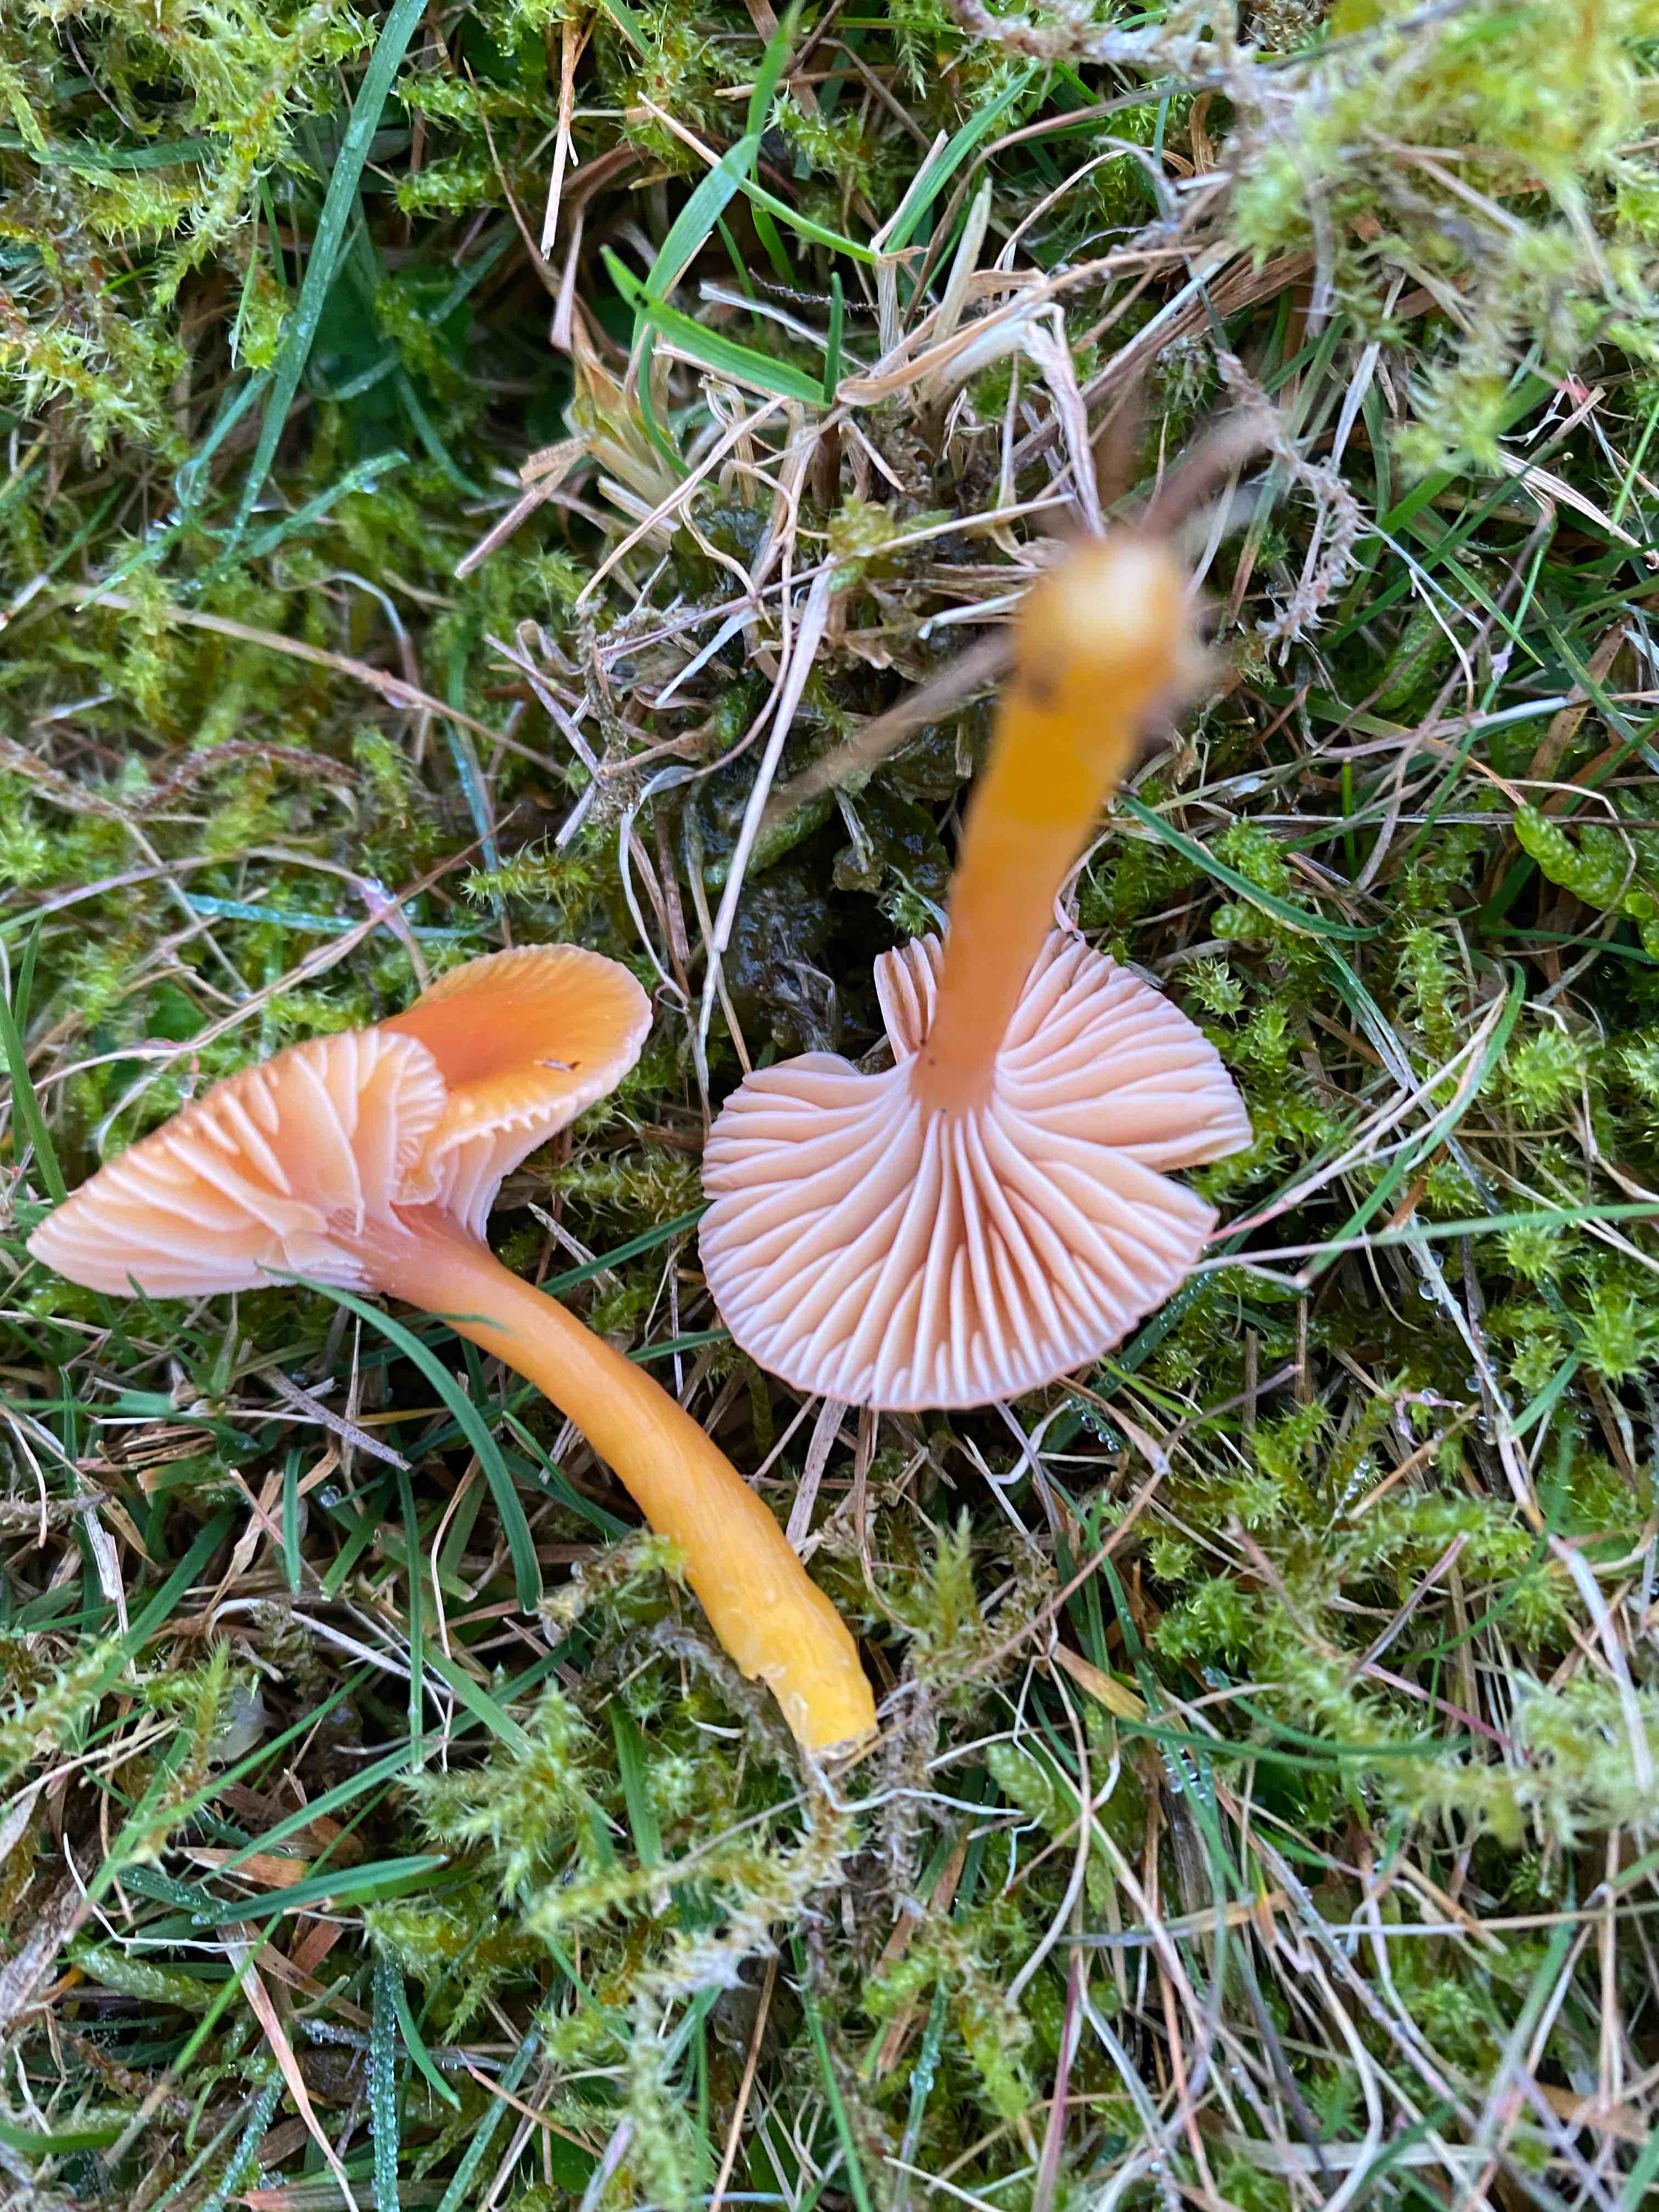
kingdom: Fungi
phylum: Basidiomycota
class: Agaricomycetes
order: Agaricales
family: Hygrophoraceae
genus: Gliophorus
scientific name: Gliophorus laetus
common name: brusk-vokshat
